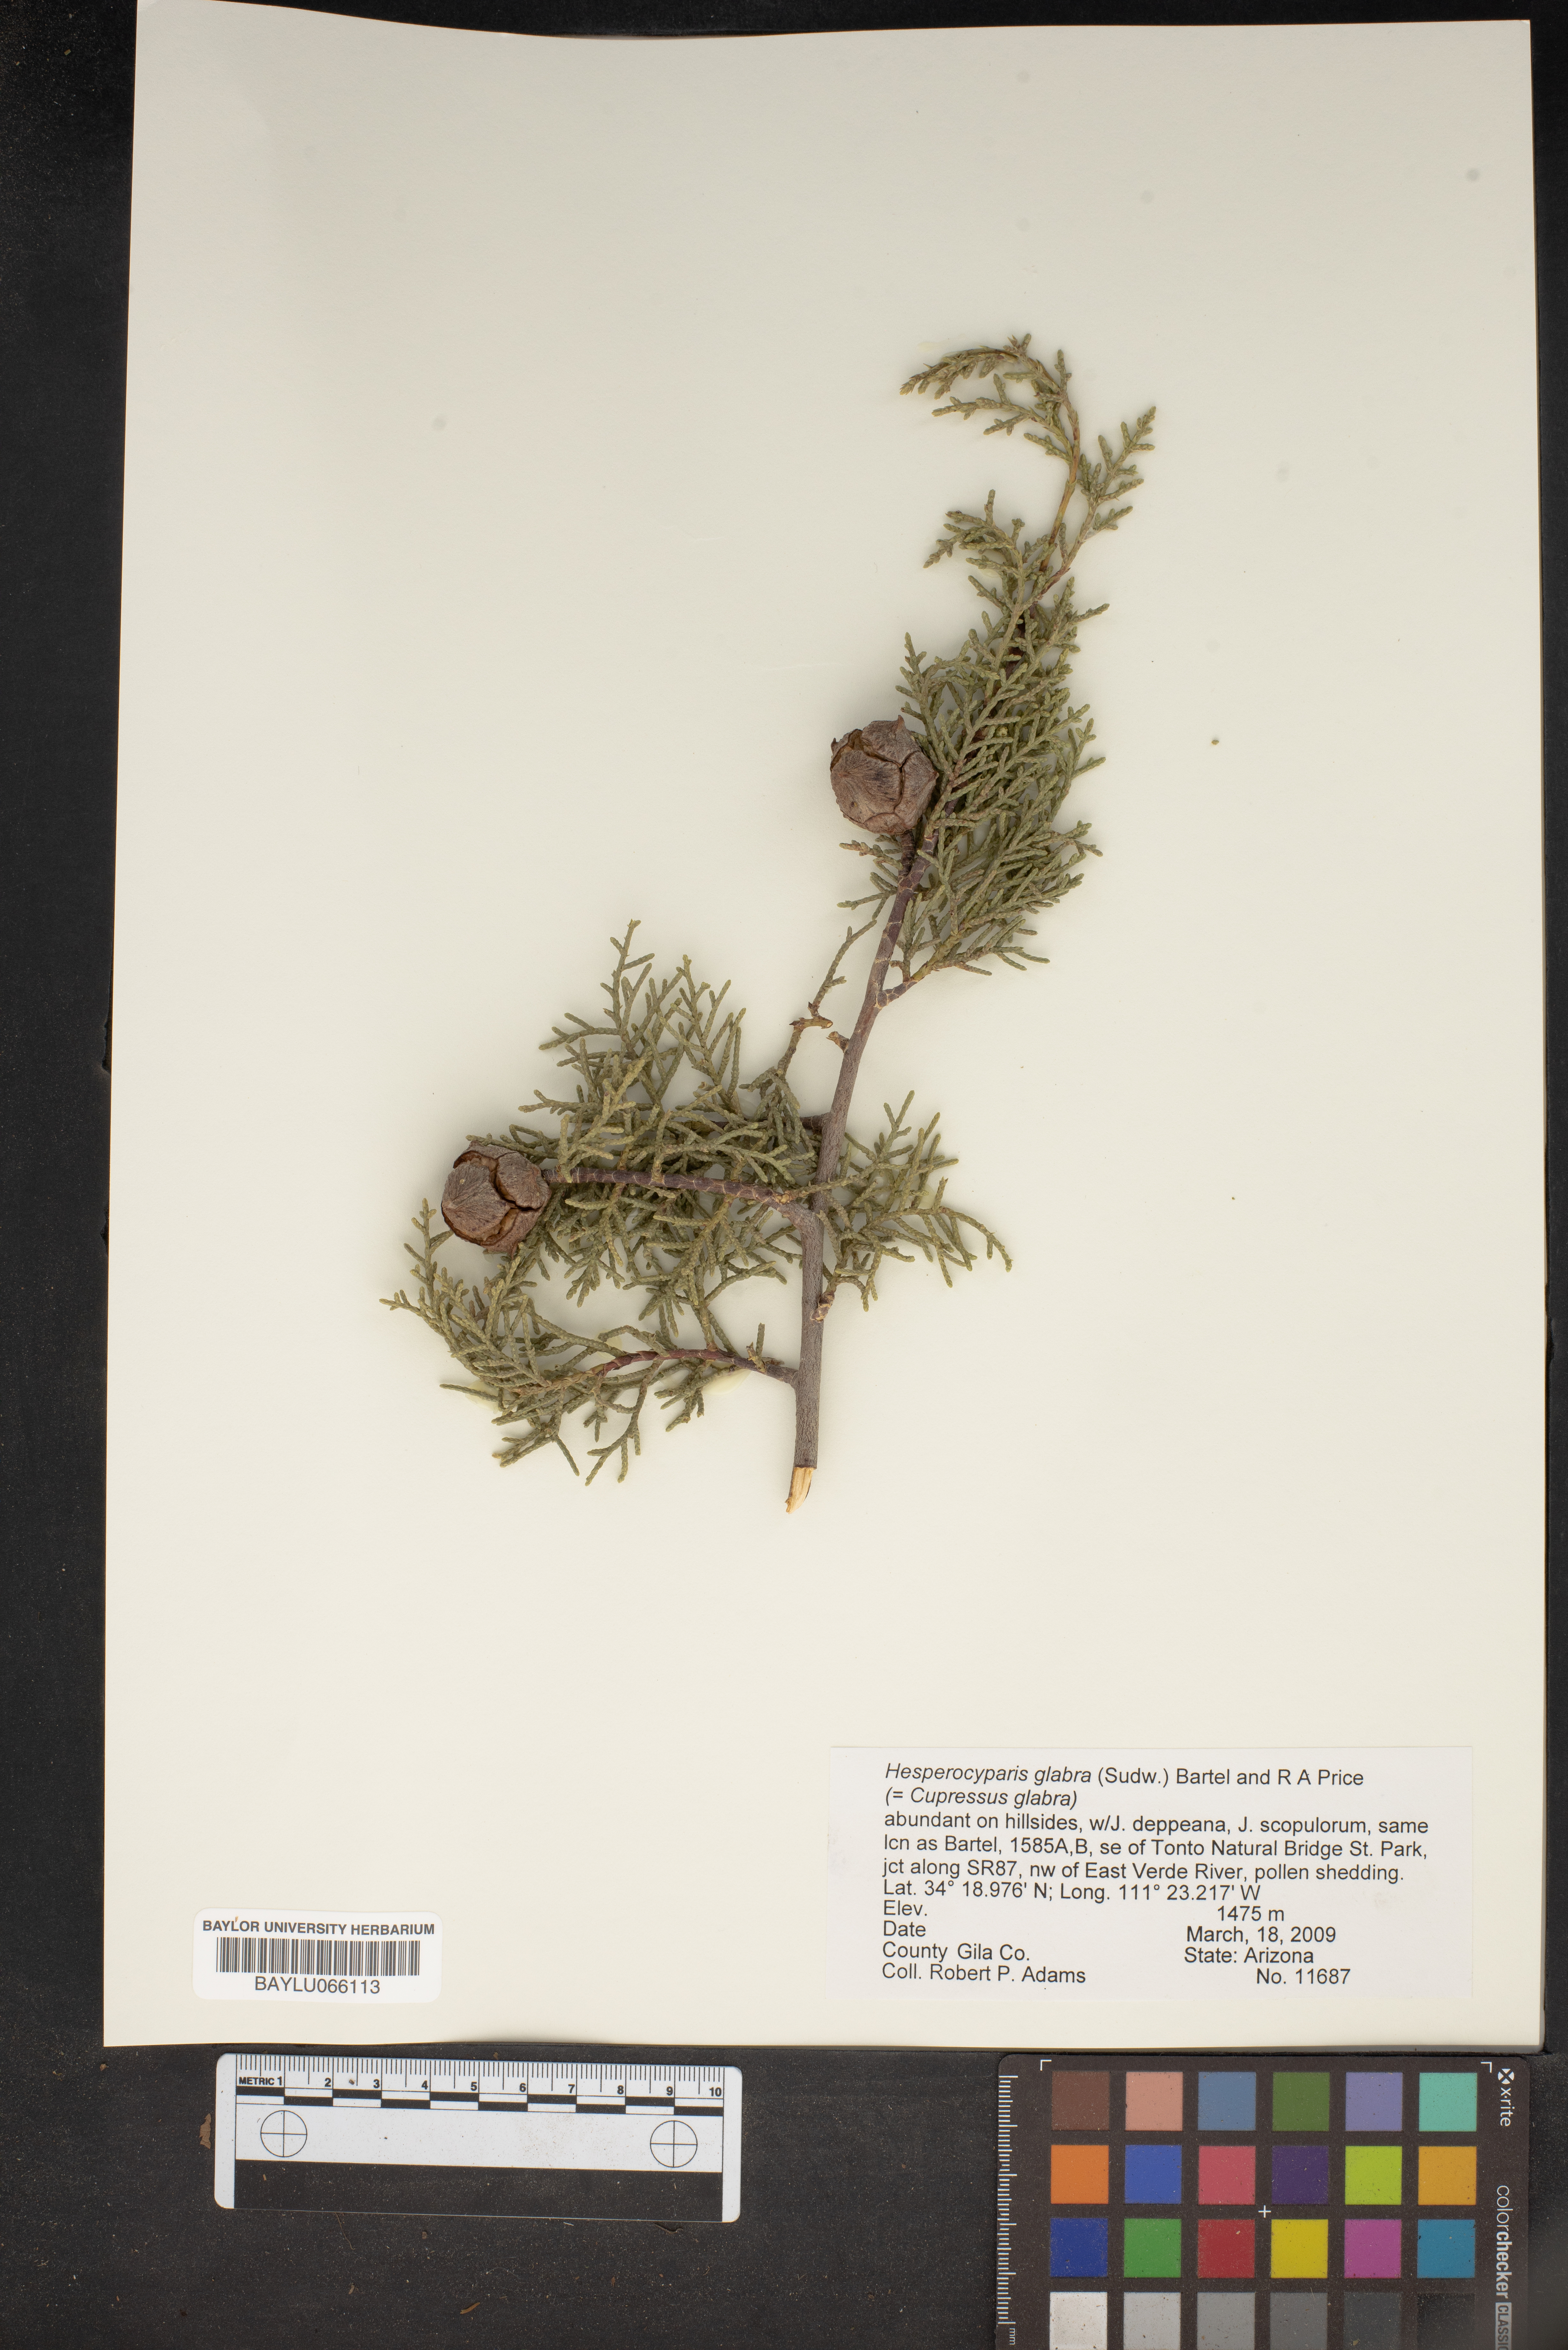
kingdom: Plantae
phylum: Tracheophyta
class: Pinopsida
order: Pinales
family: Cupressaceae
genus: Cupressus
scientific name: Cupressus arizonica
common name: Arizona cypress
